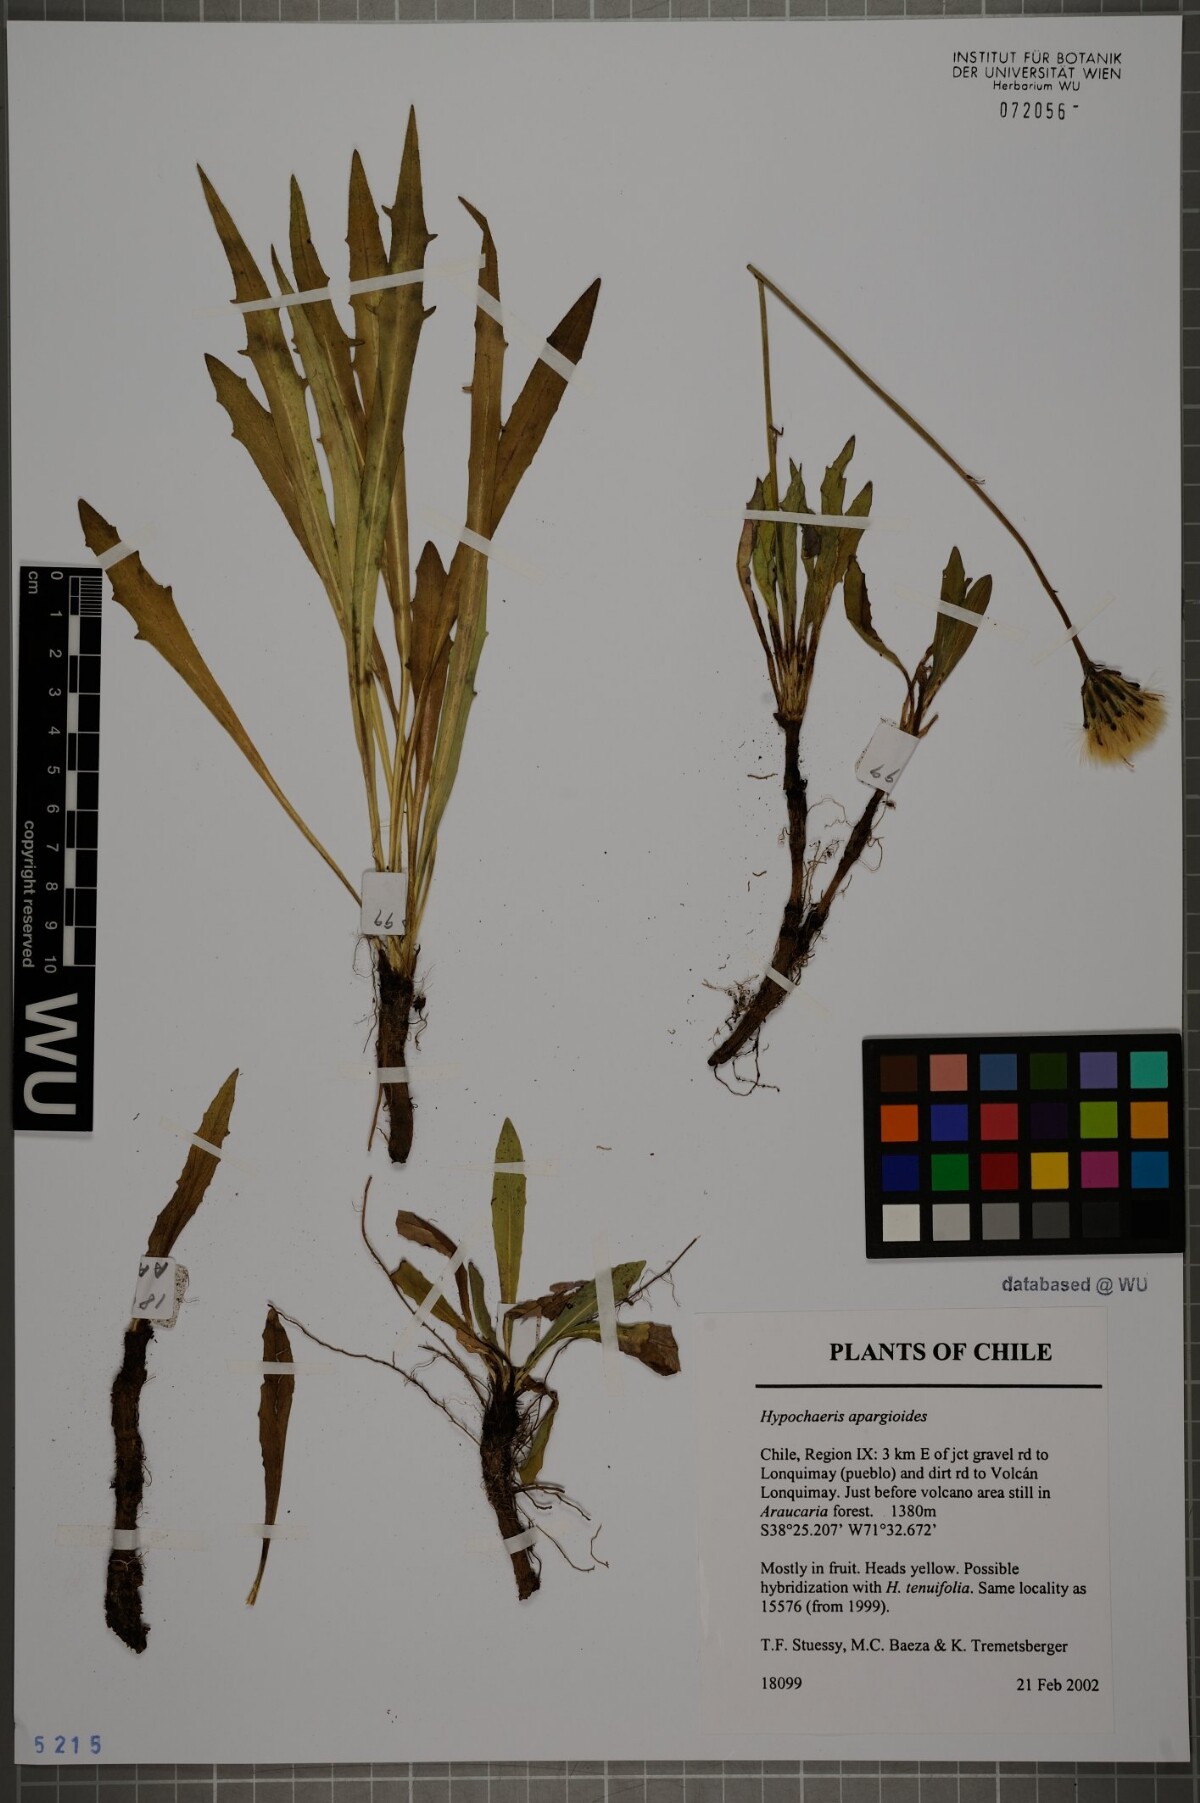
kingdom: Plantae
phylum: Tracheophyta
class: Magnoliopsida
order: Asterales
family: Asteraceae
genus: Hypochaeris
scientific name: Hypochaeris apargioides
